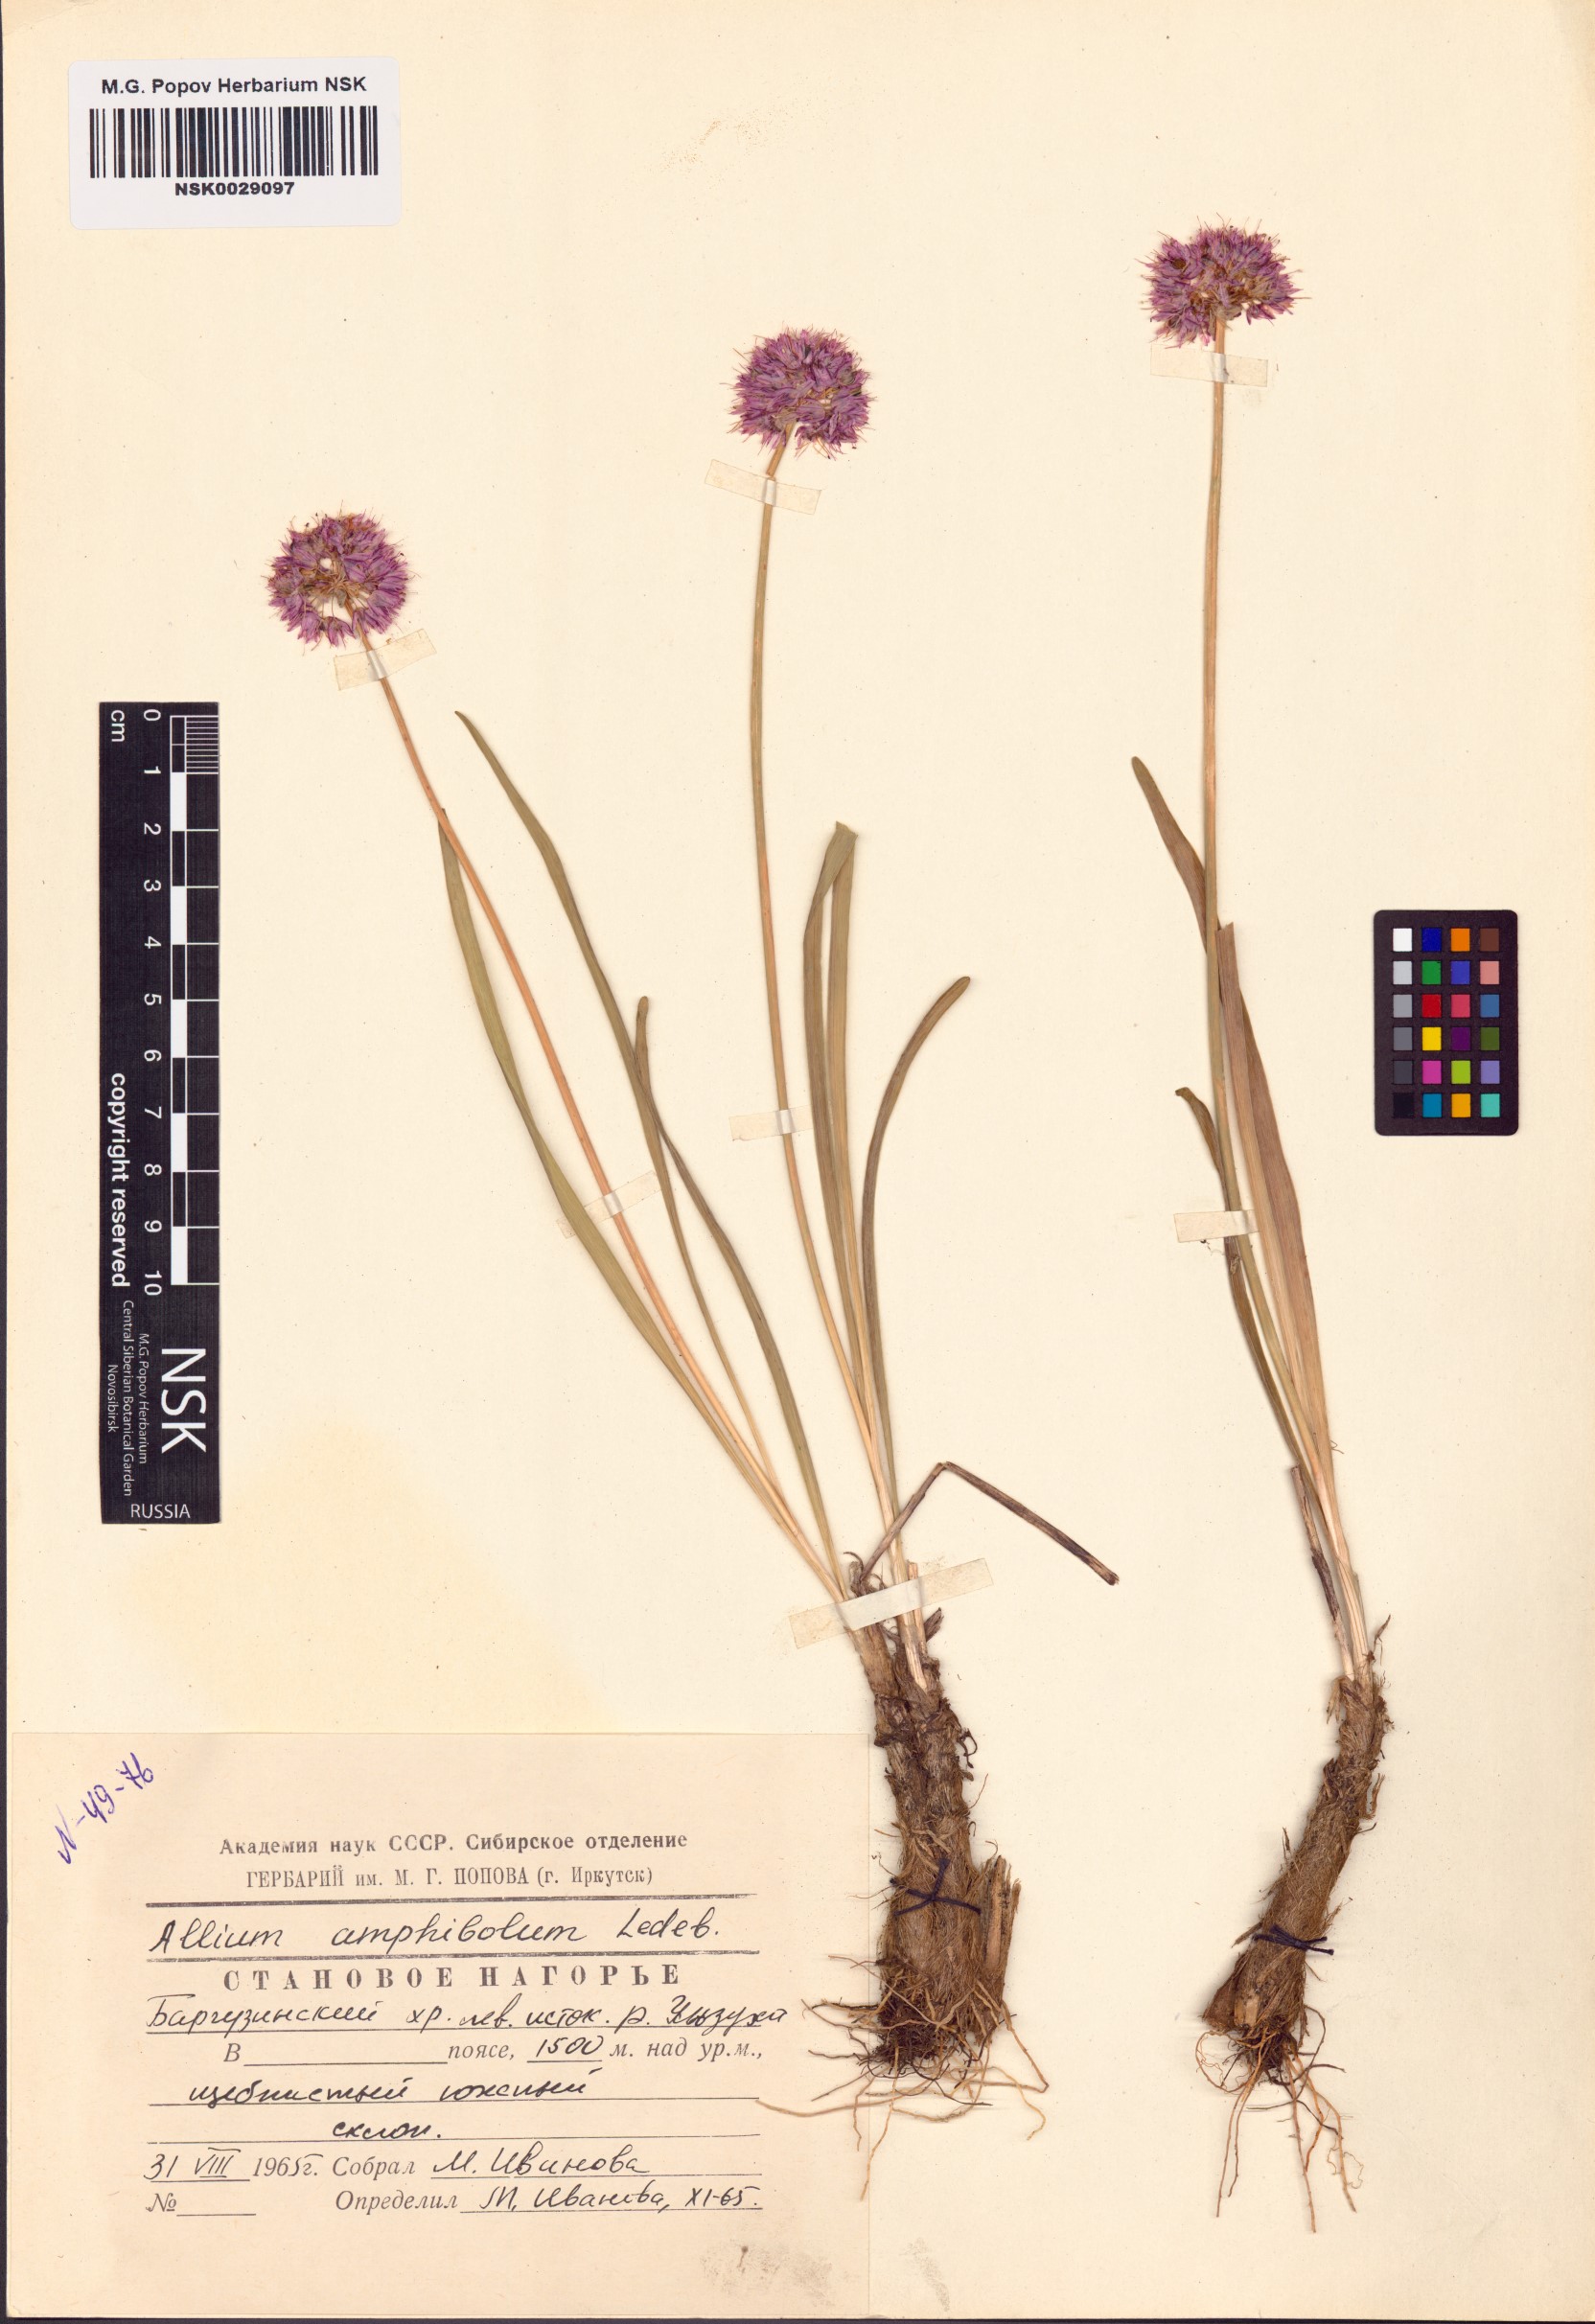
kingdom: Plantae
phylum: Tracheophyta
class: Liliopsida
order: Asparagales
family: Amaryllidaceae
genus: Allium
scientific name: Allium amphibolum
